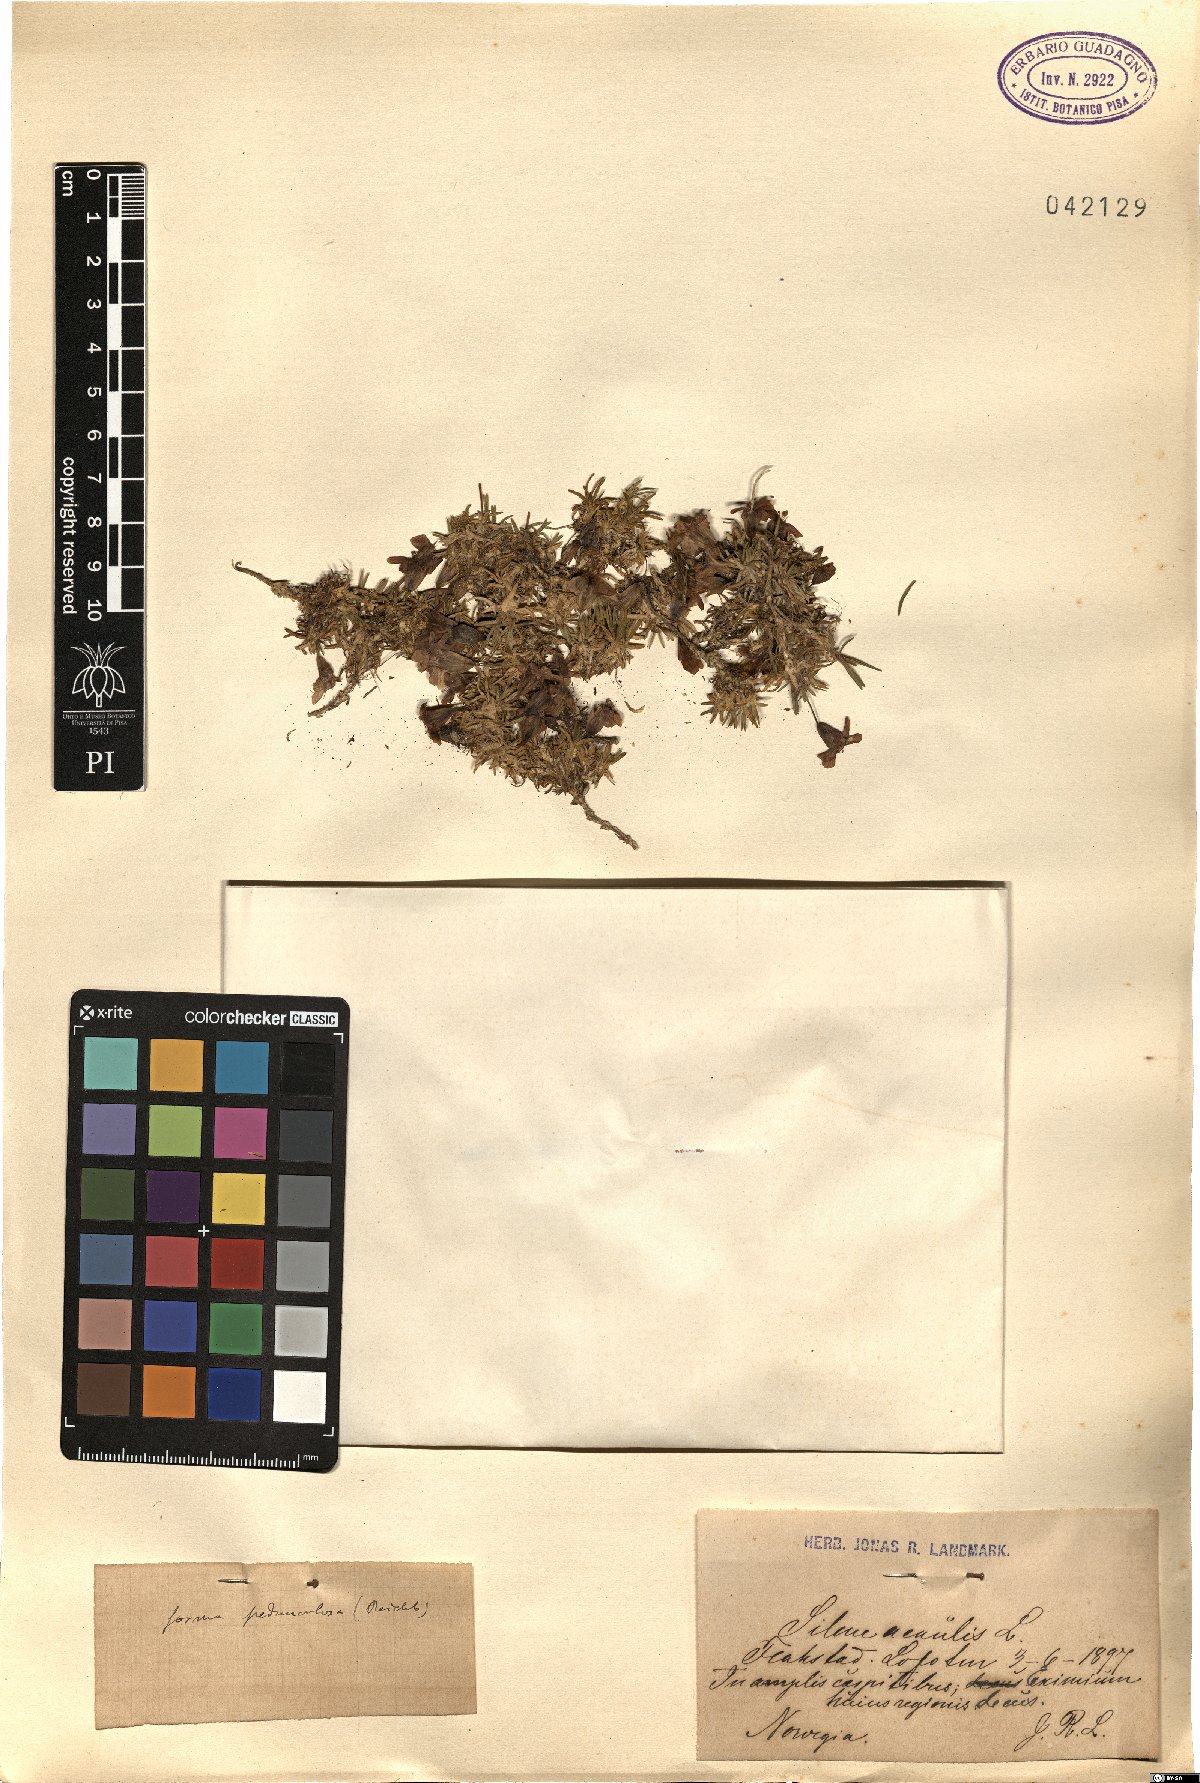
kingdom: Plantae
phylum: Tracheophyta
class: Magnoliopsida
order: Caryophyllales
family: Caryophyllaceae
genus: Silene
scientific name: Silene acaulis
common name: Moss campion
